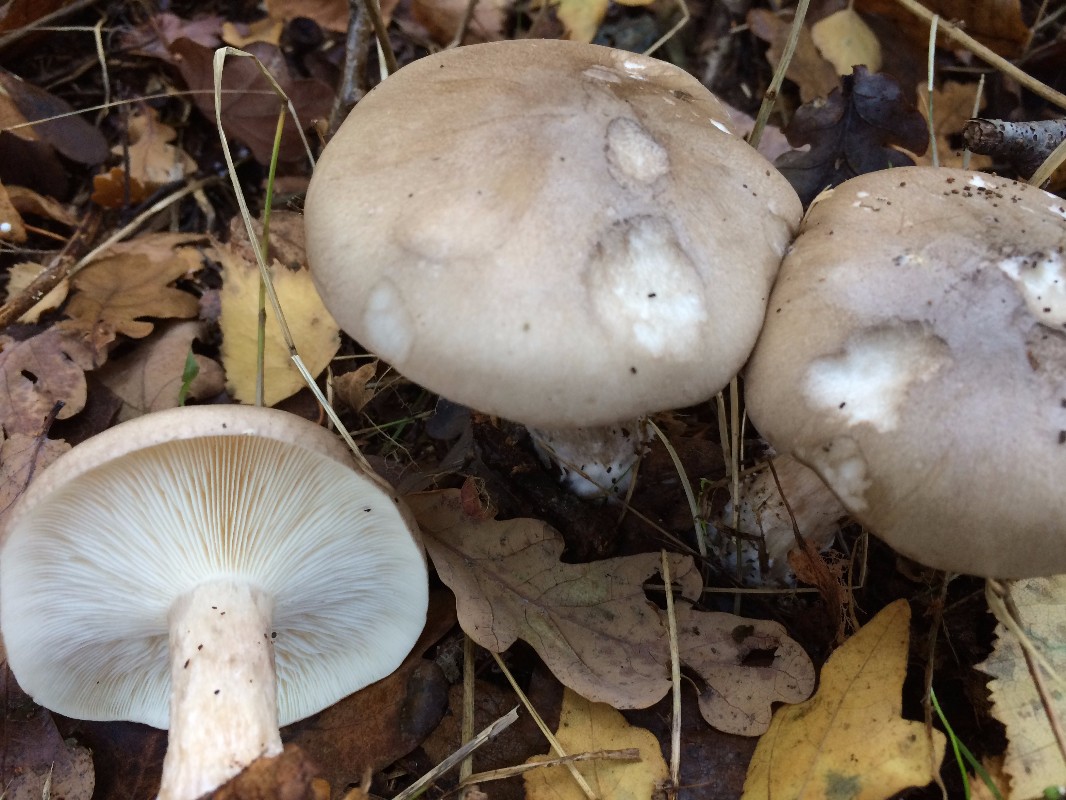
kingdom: Fungi
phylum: Basidiomycota
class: Agaricomycetes
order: Agaricales
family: Tricholomataceae
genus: Clitocybe
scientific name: Clitocybe nebularis
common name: tåge-tragthat
